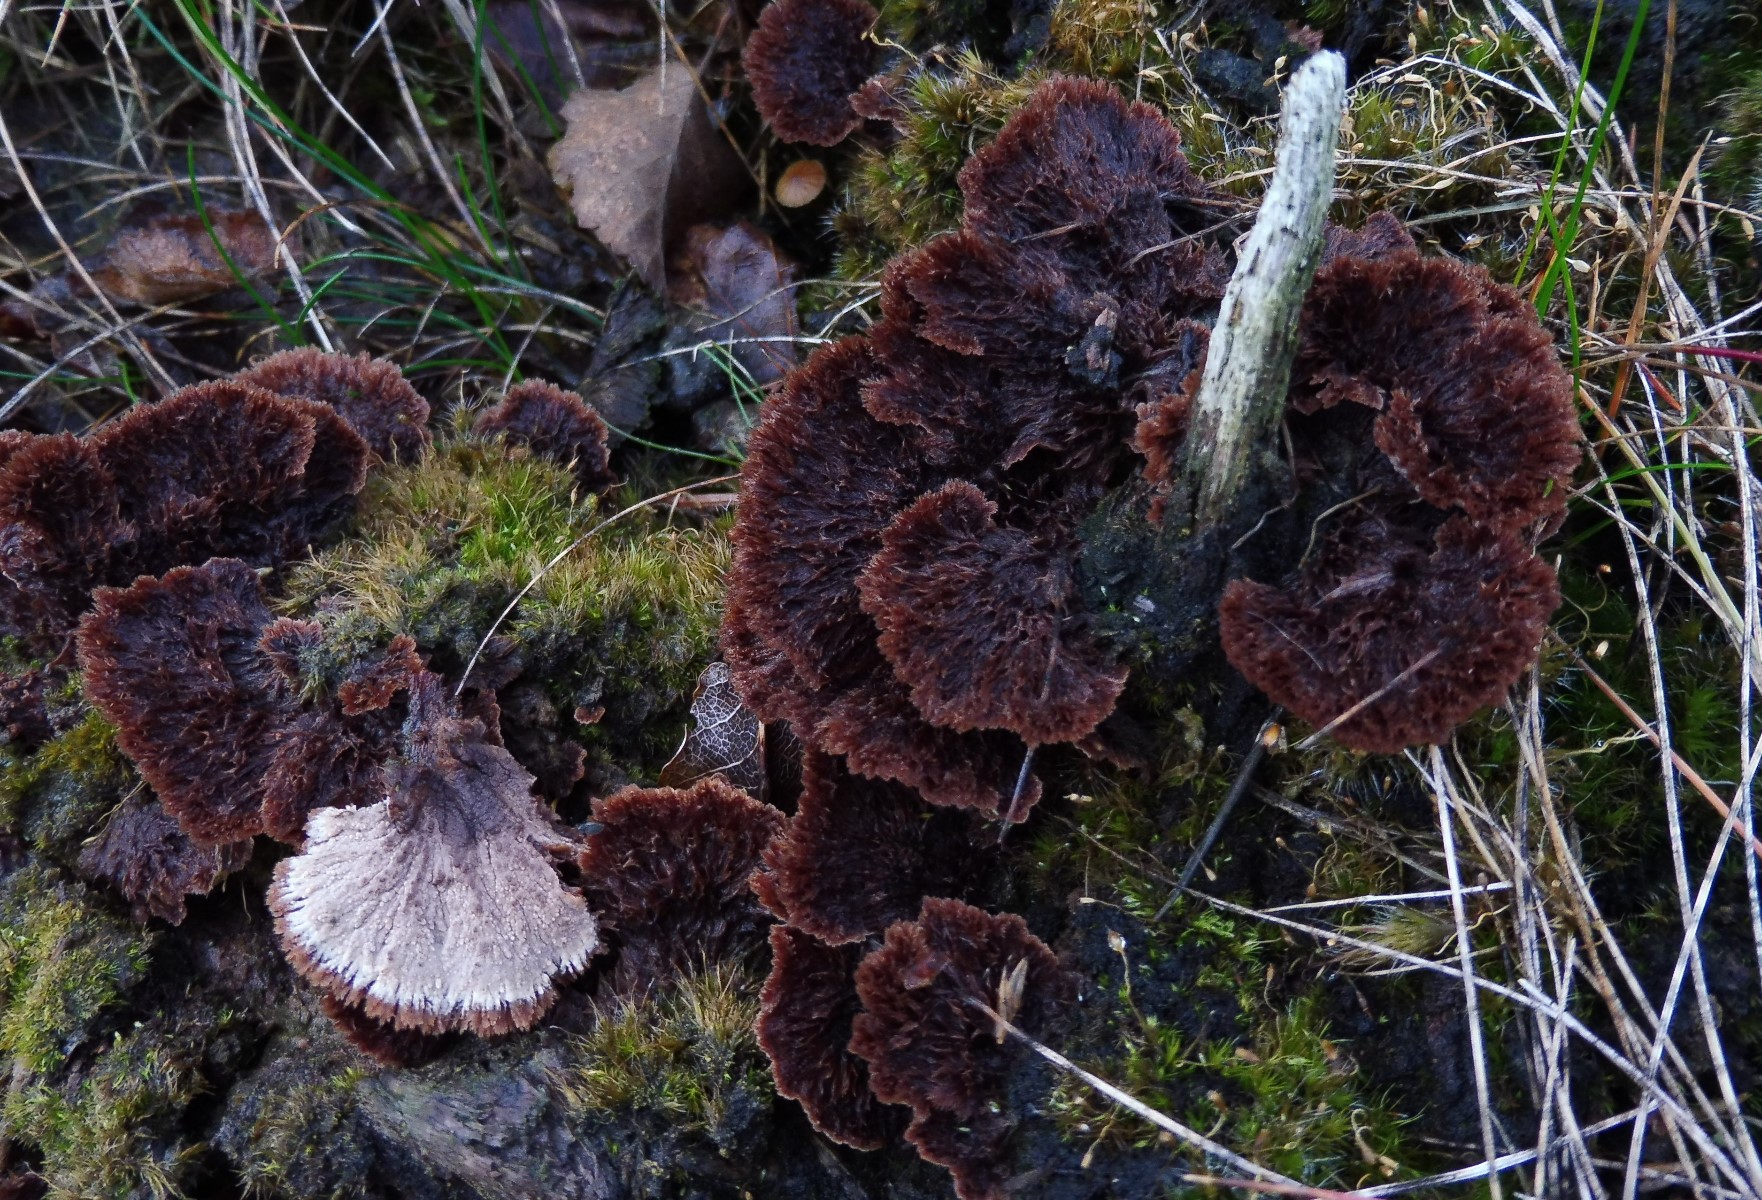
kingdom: Fungi
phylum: Basidiomycota
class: Agaricomycetes
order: Thelephorales
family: Thelephoraceae
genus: Thelephora
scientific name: Thelephora terrestris
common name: fliget frynsesvamp
